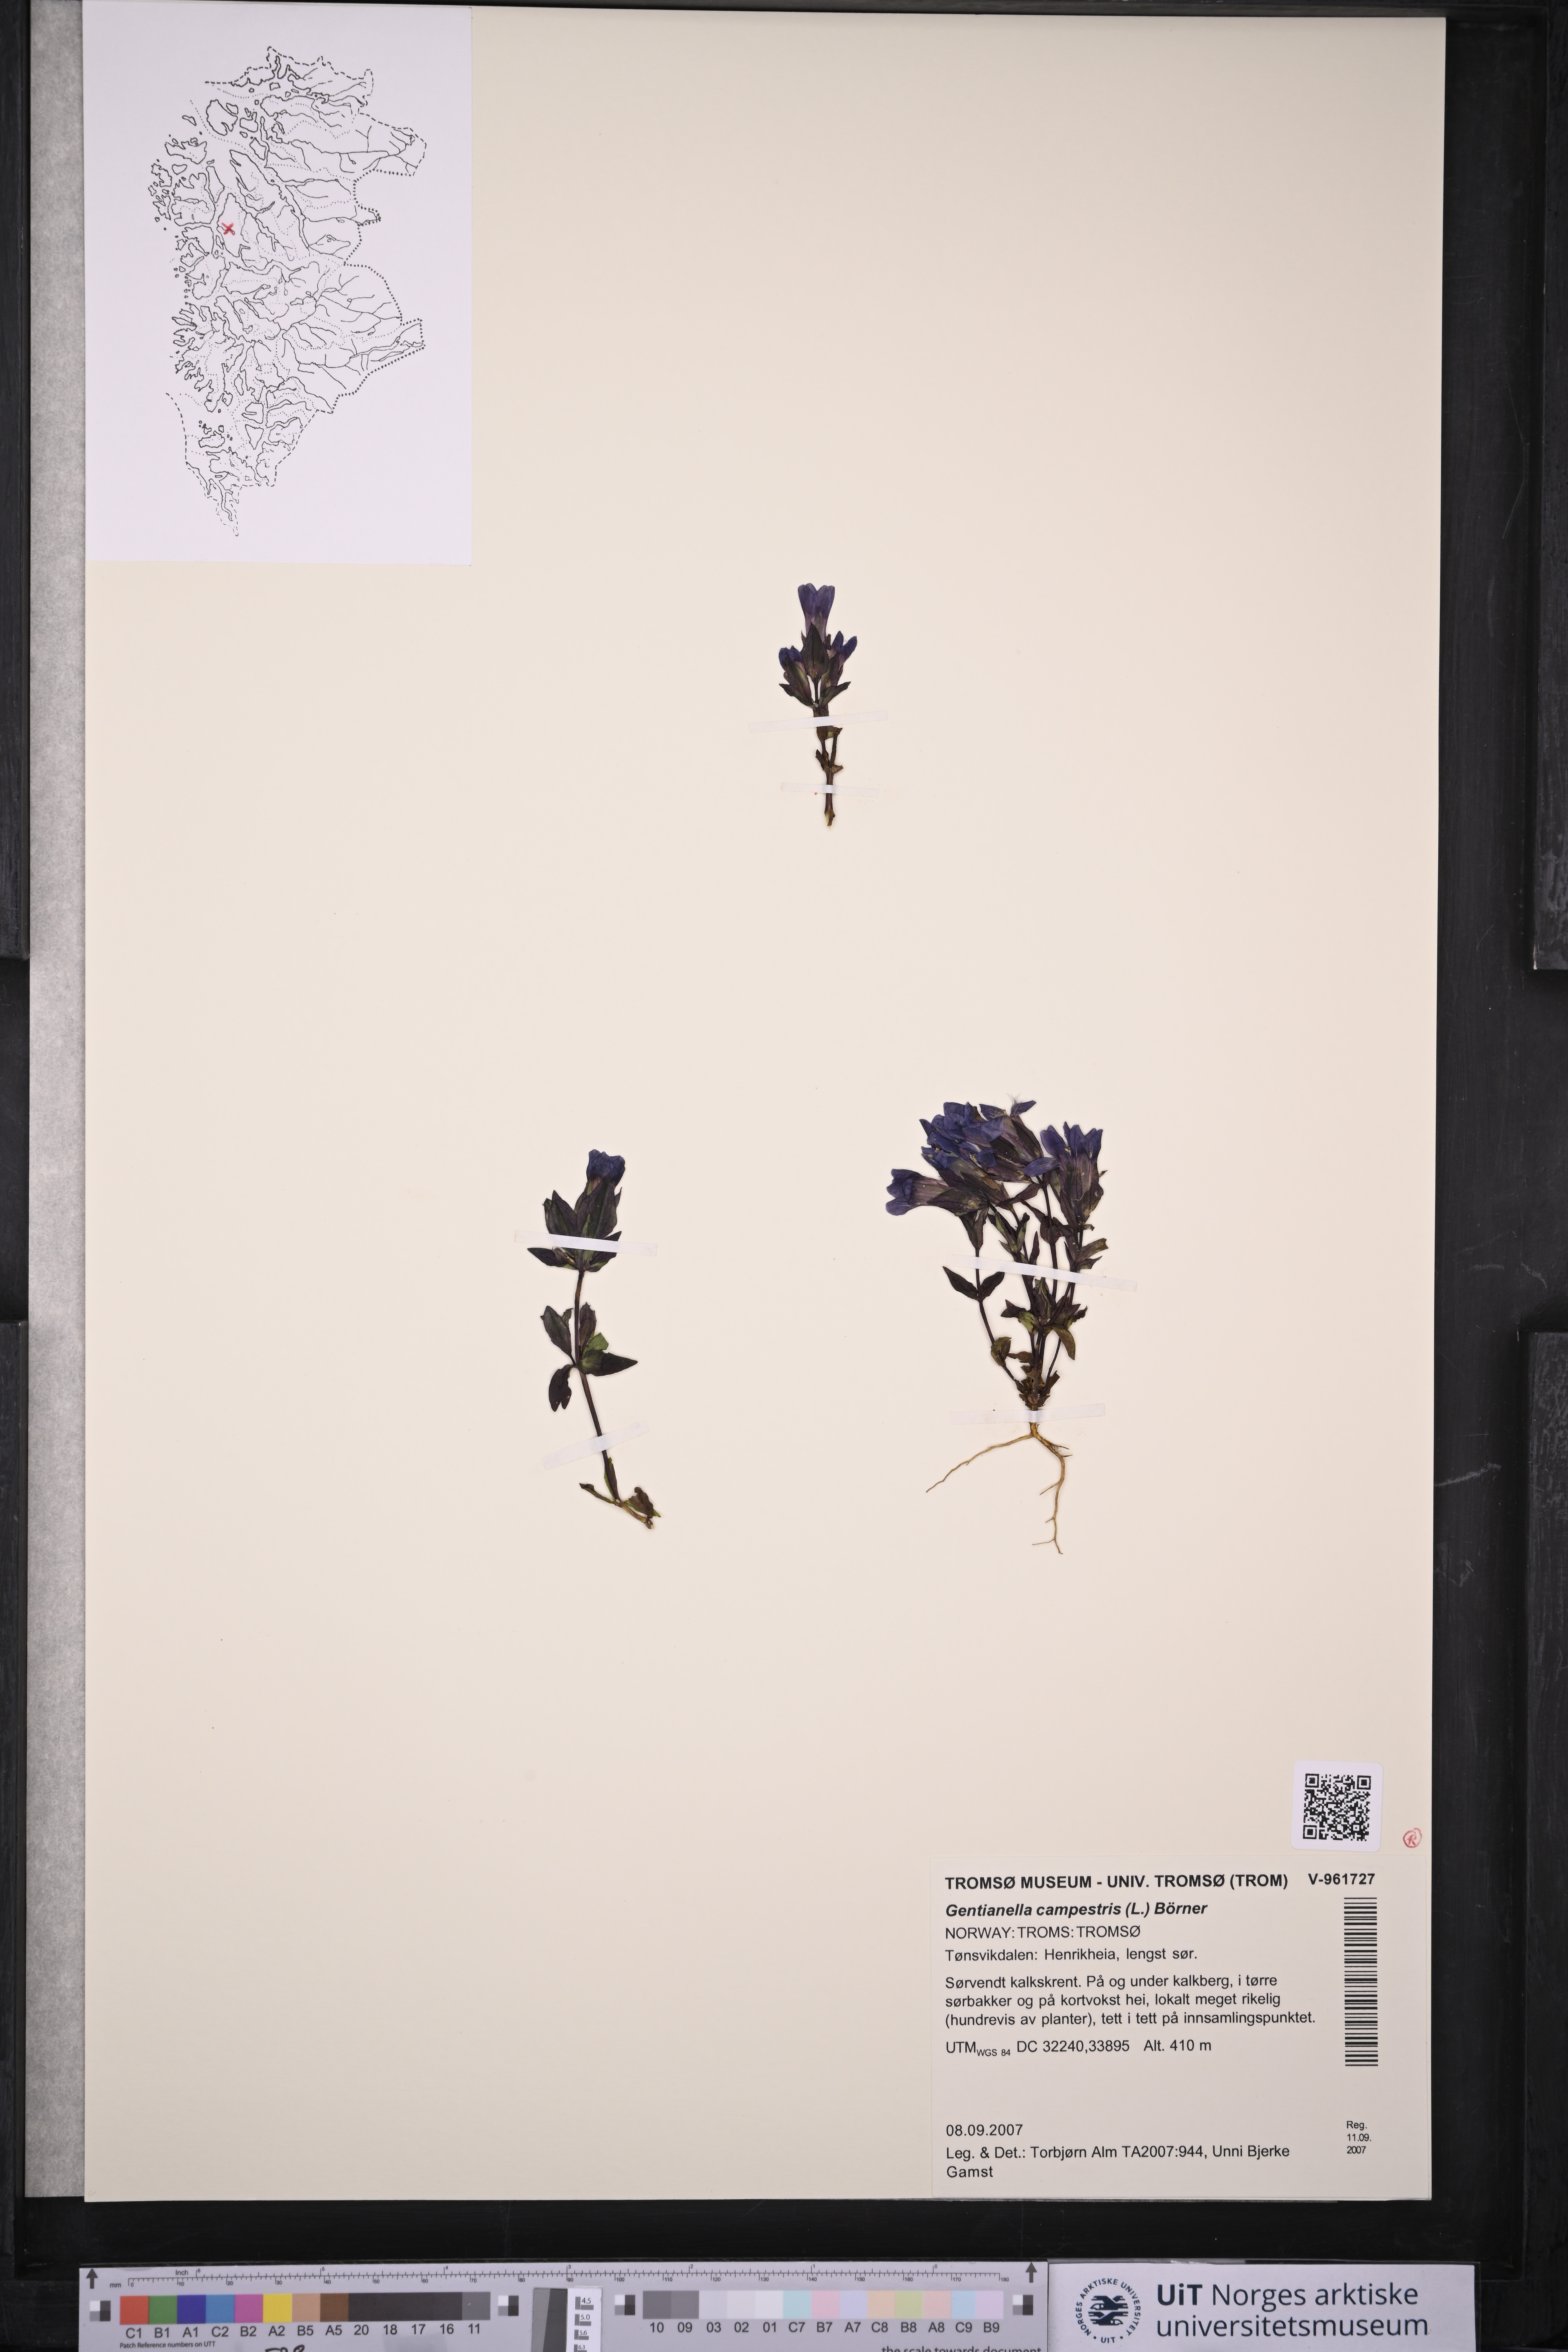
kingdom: Plantae
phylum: Tracheophyta
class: Magnoliopsida
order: Gentianales
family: Gentianaceae
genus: Gentianella
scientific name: Gentianella campestris
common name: Field gentian
